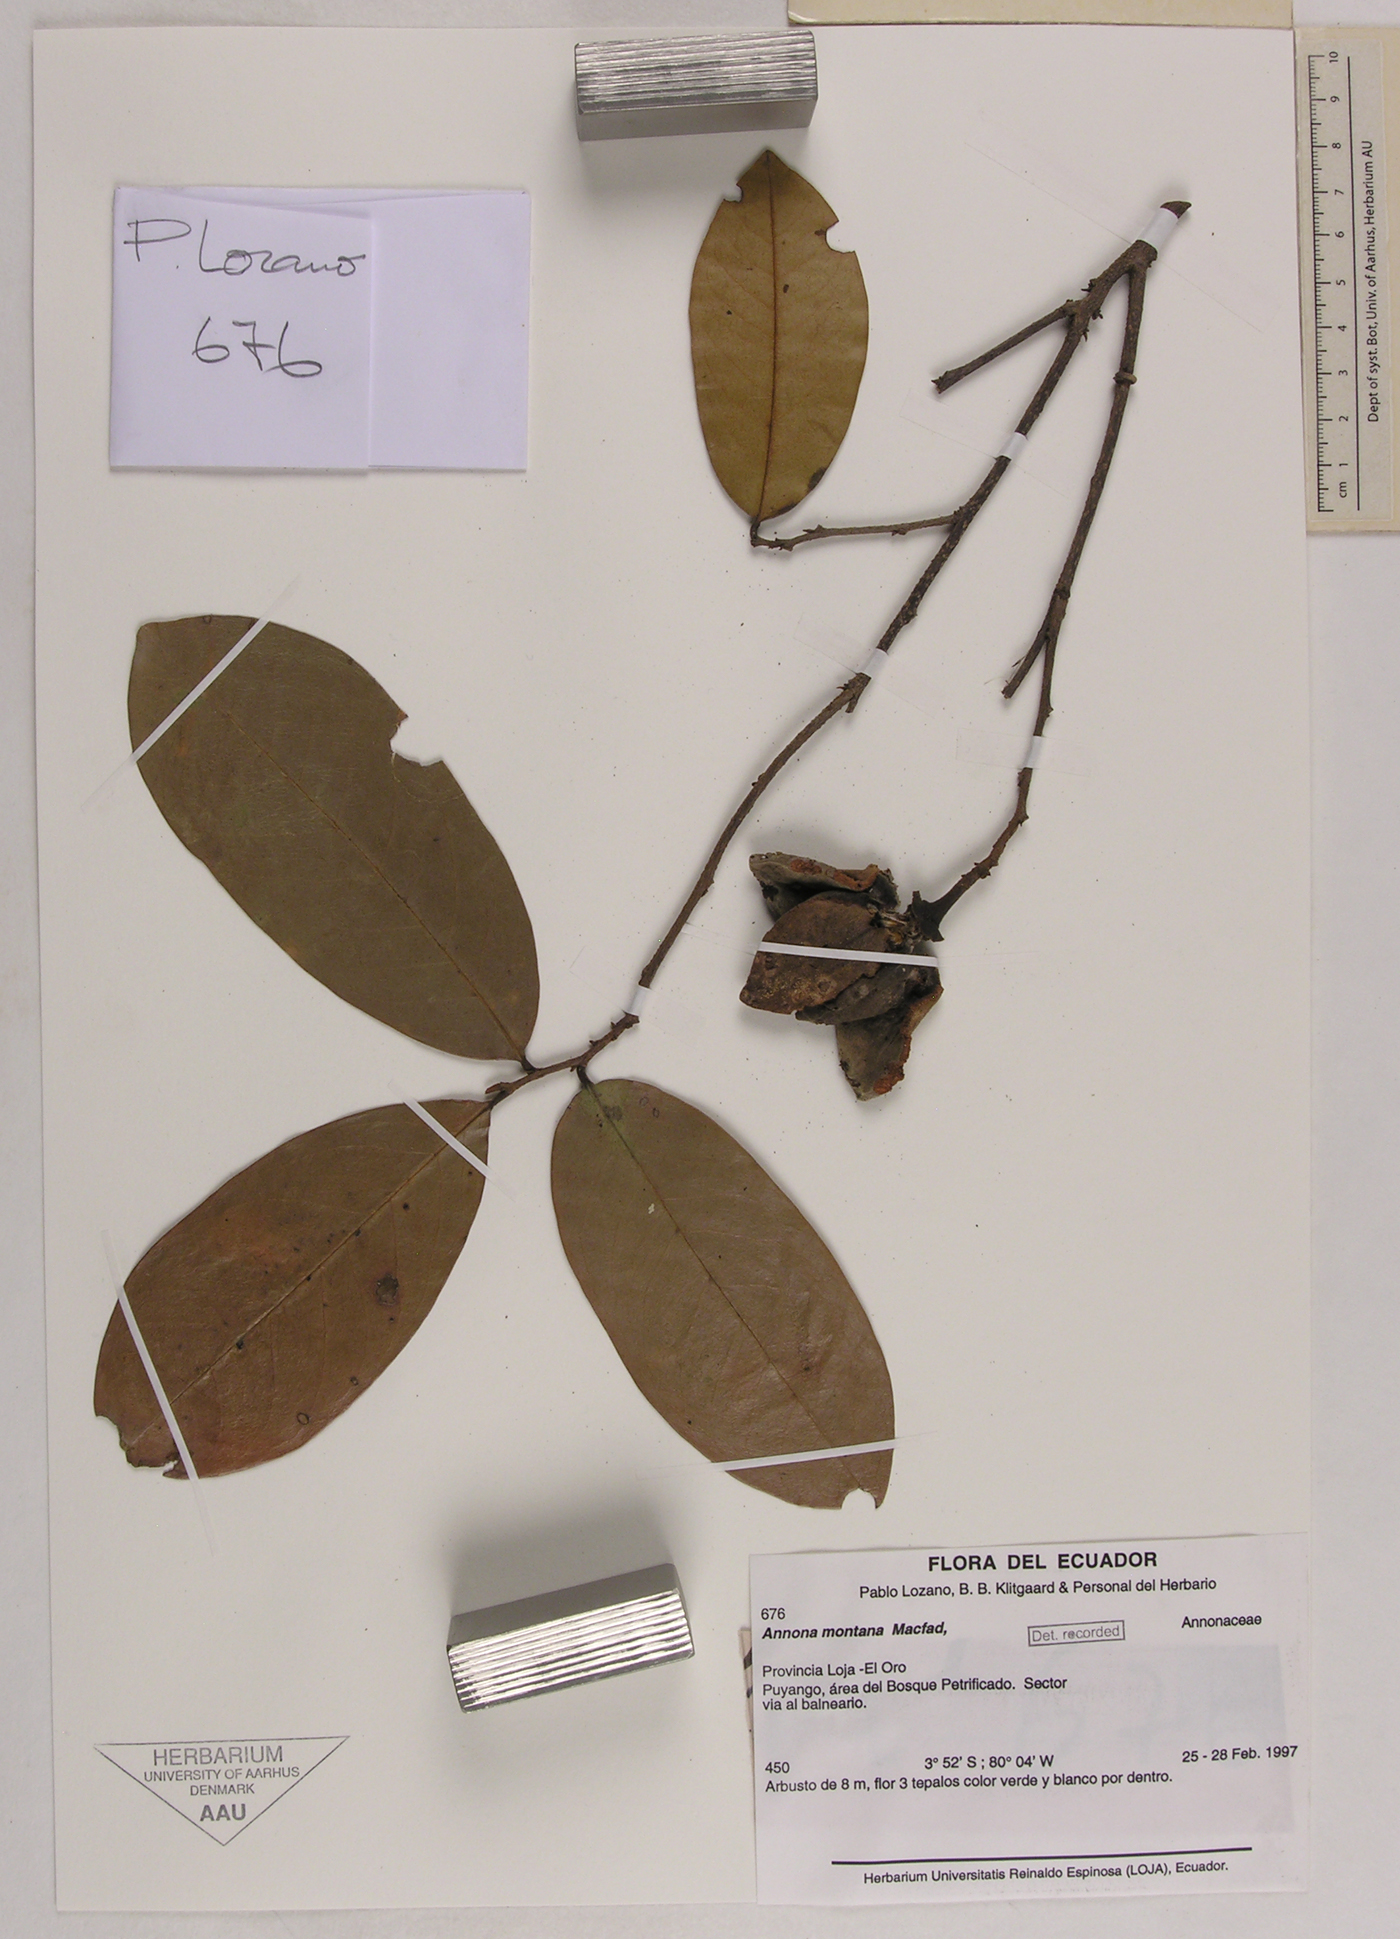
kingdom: Plantae
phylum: Tracheophyta
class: Magnoliopsida
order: Magnoliales
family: Annonaceae
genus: Annona
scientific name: Annona montana
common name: Mountain soursop
